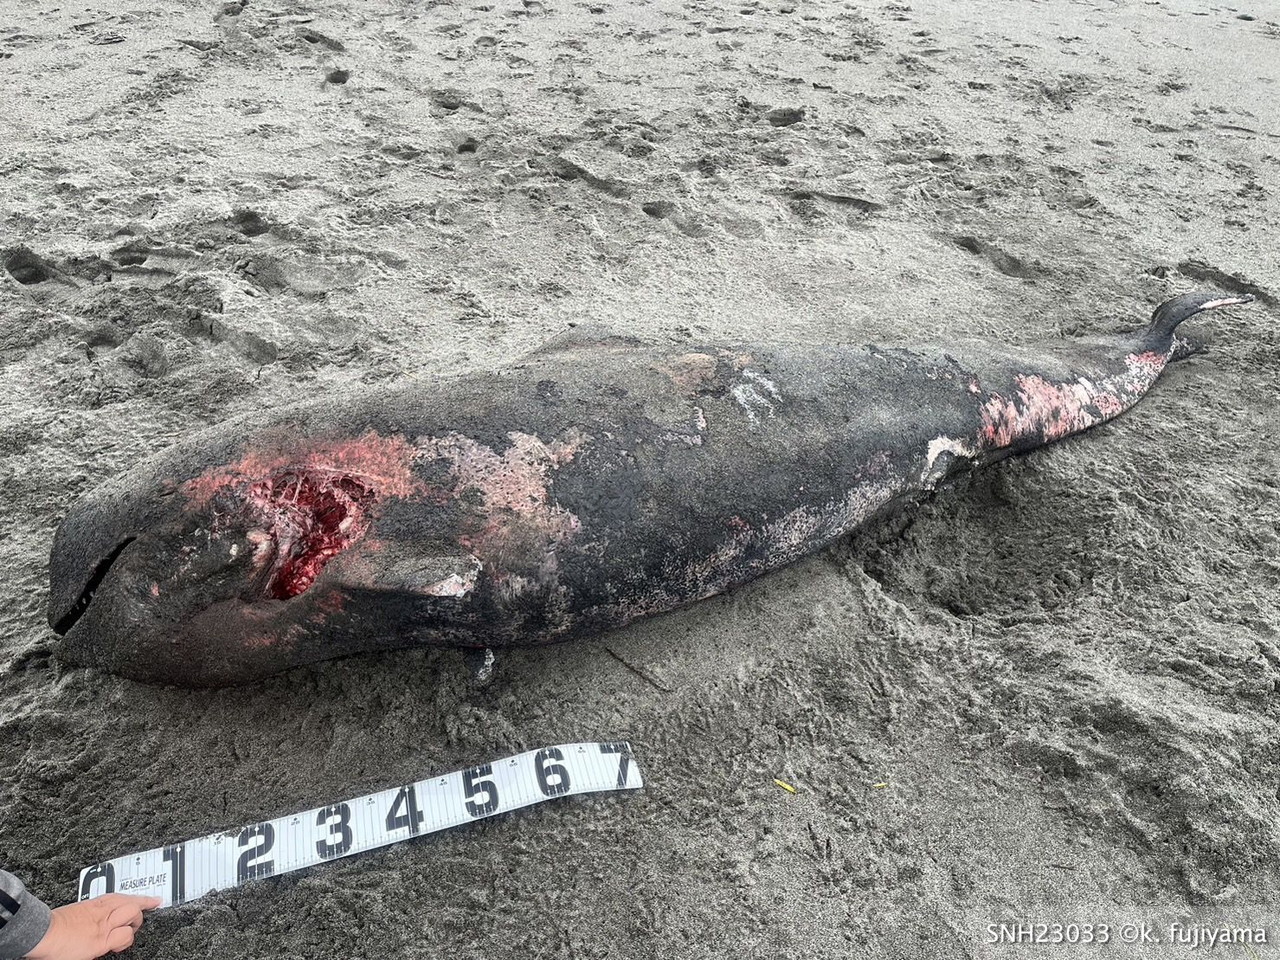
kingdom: Animalia
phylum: Chordata
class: Mammalia
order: Cetacea
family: Delphinidae
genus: Globicephala
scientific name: Globicephala macrorhynchus
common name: Short-finned pilot whale
